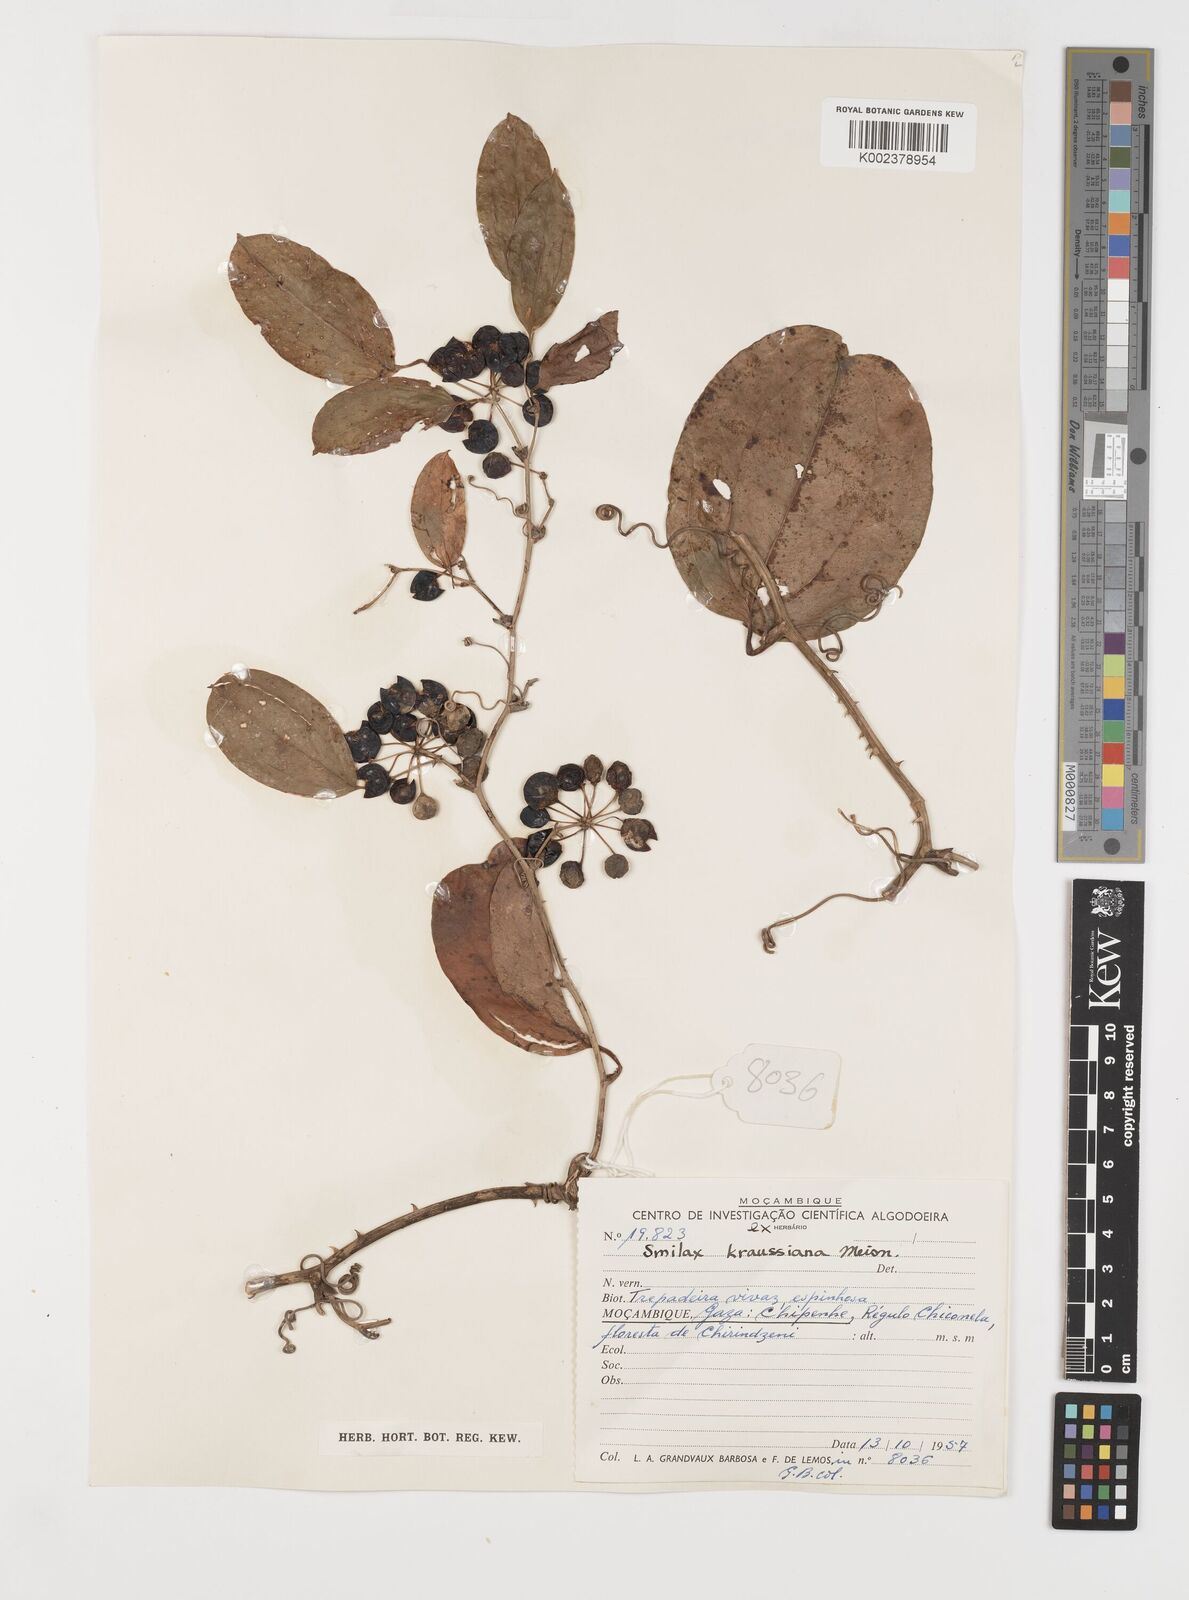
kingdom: Plantae
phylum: Tracheophyta
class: Liliopsida
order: Liliales
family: Smilacaceae
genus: Smilax
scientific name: Smilax anceps
